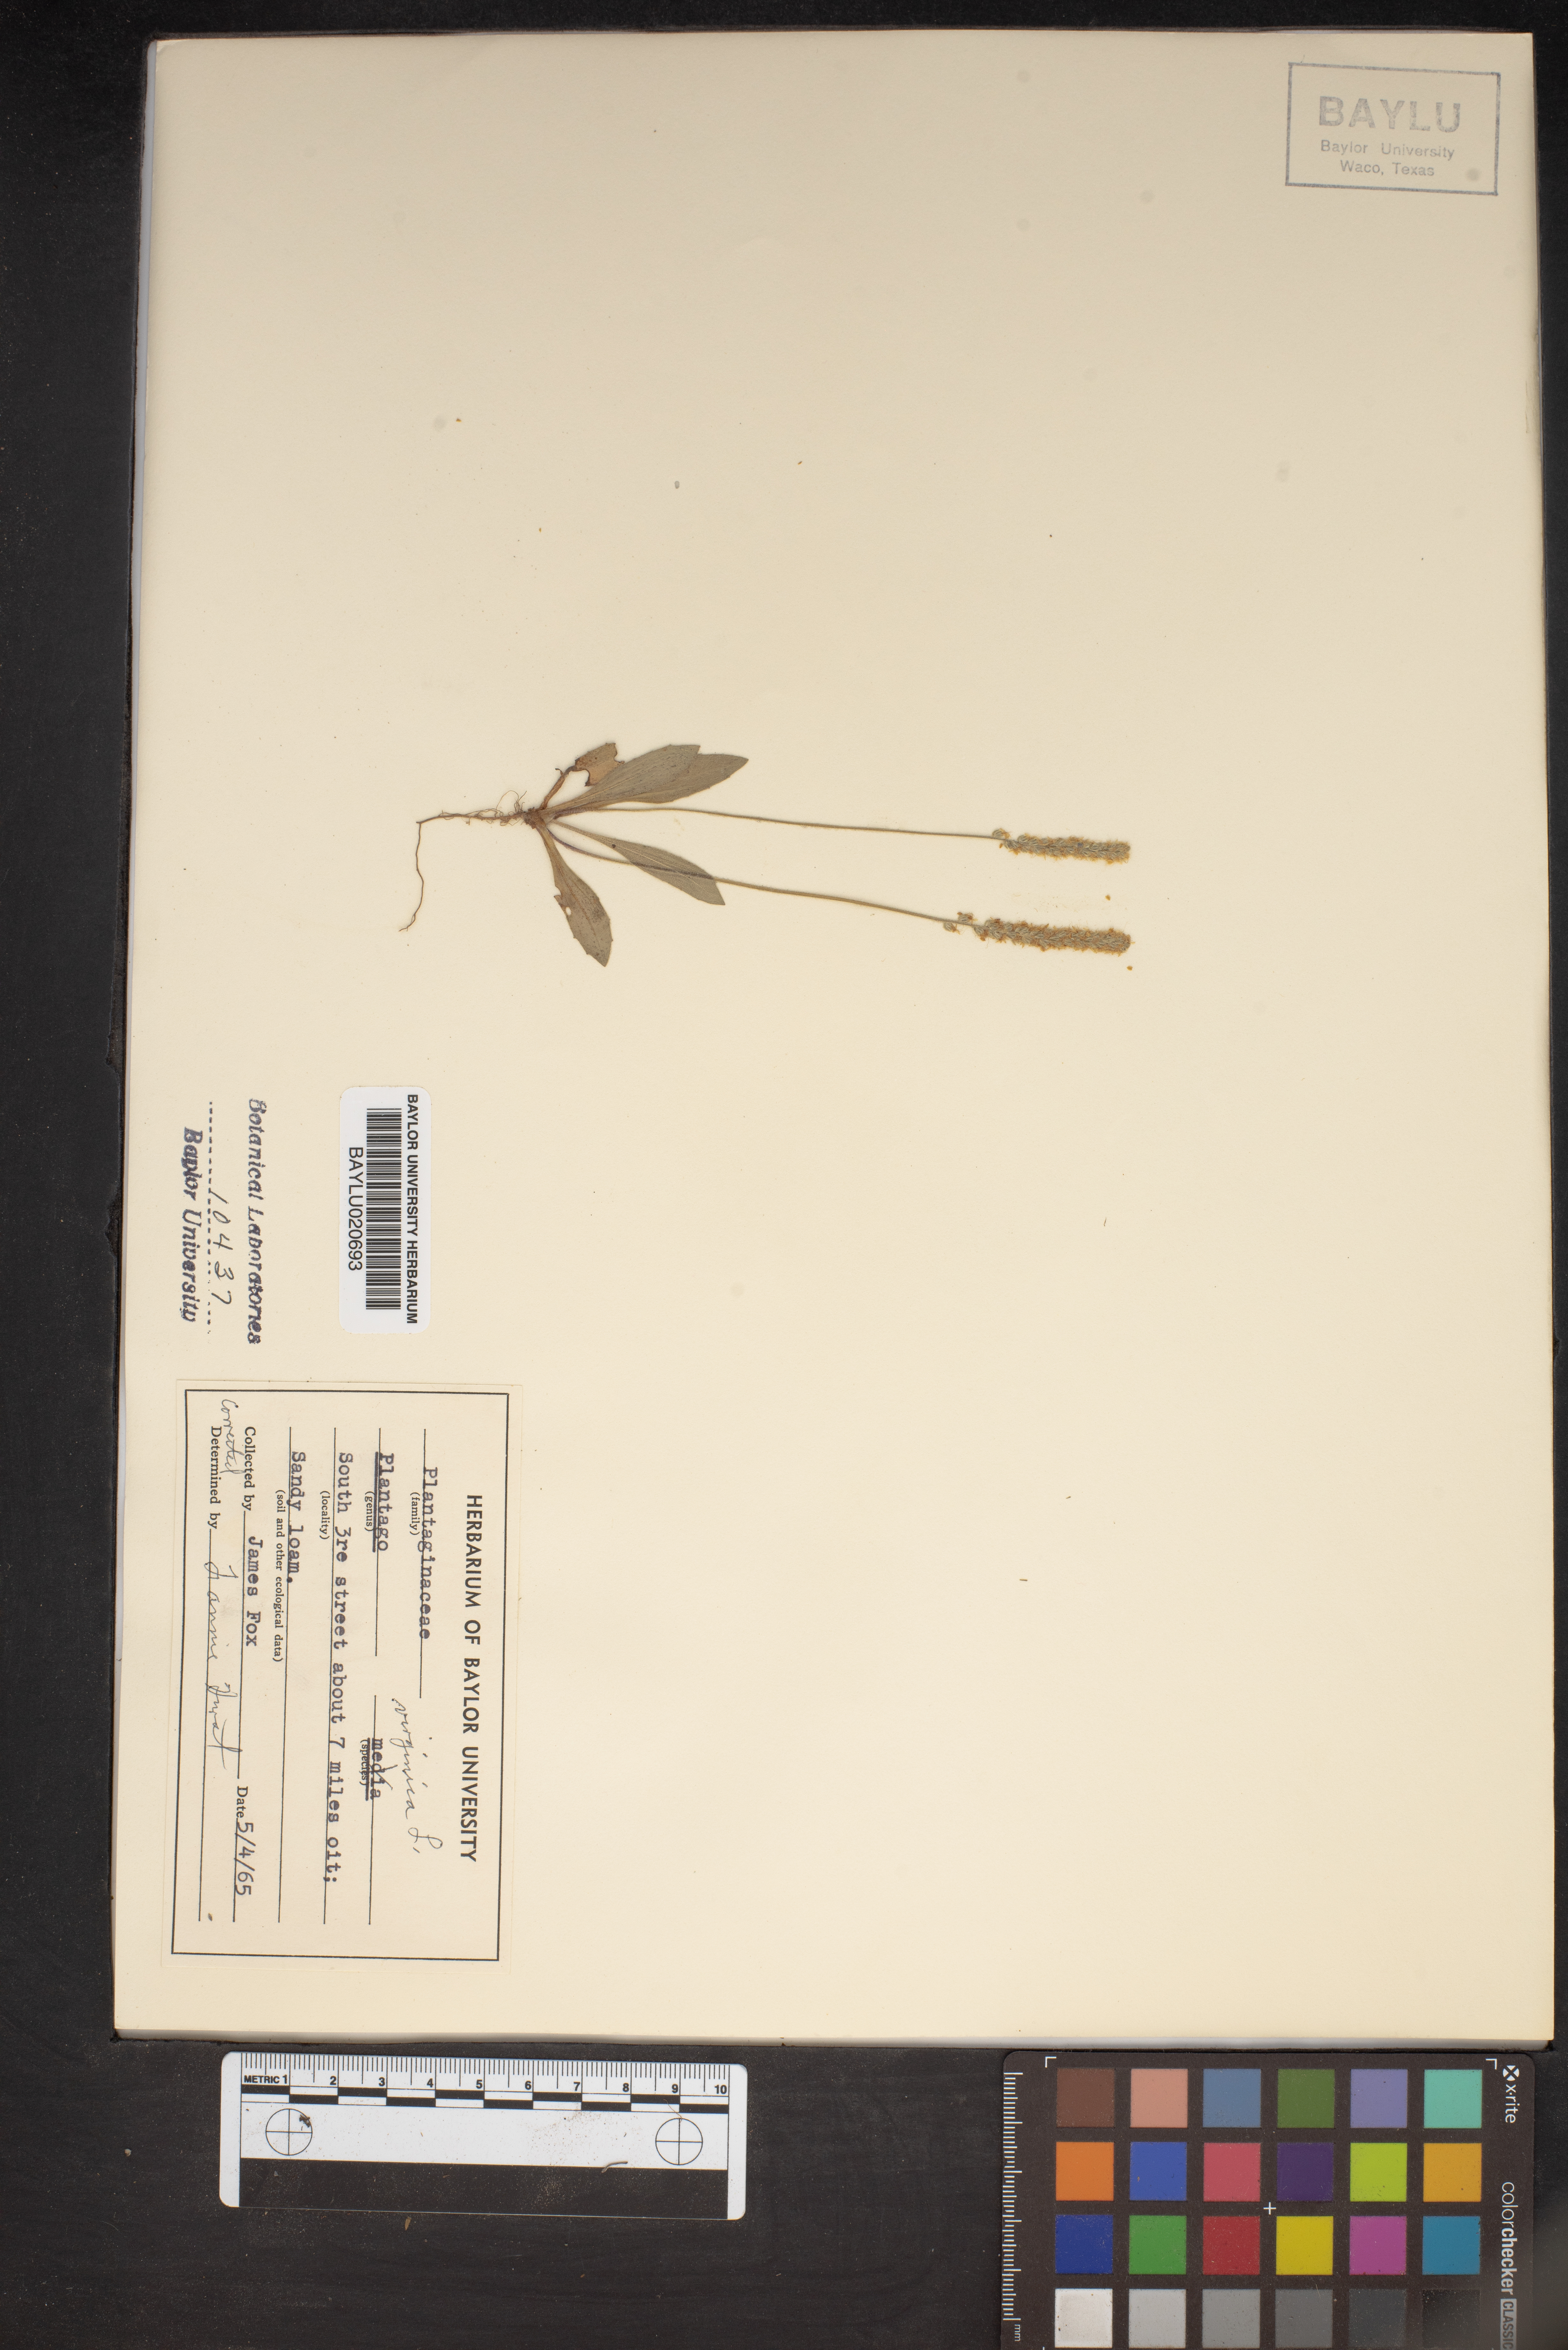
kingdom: Plantae
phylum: Tracheophyta
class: Magnoliopsida
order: Lamiales
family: Plantaginaceae
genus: Plantago
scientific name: Plantago virginica
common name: Hoary plantain
